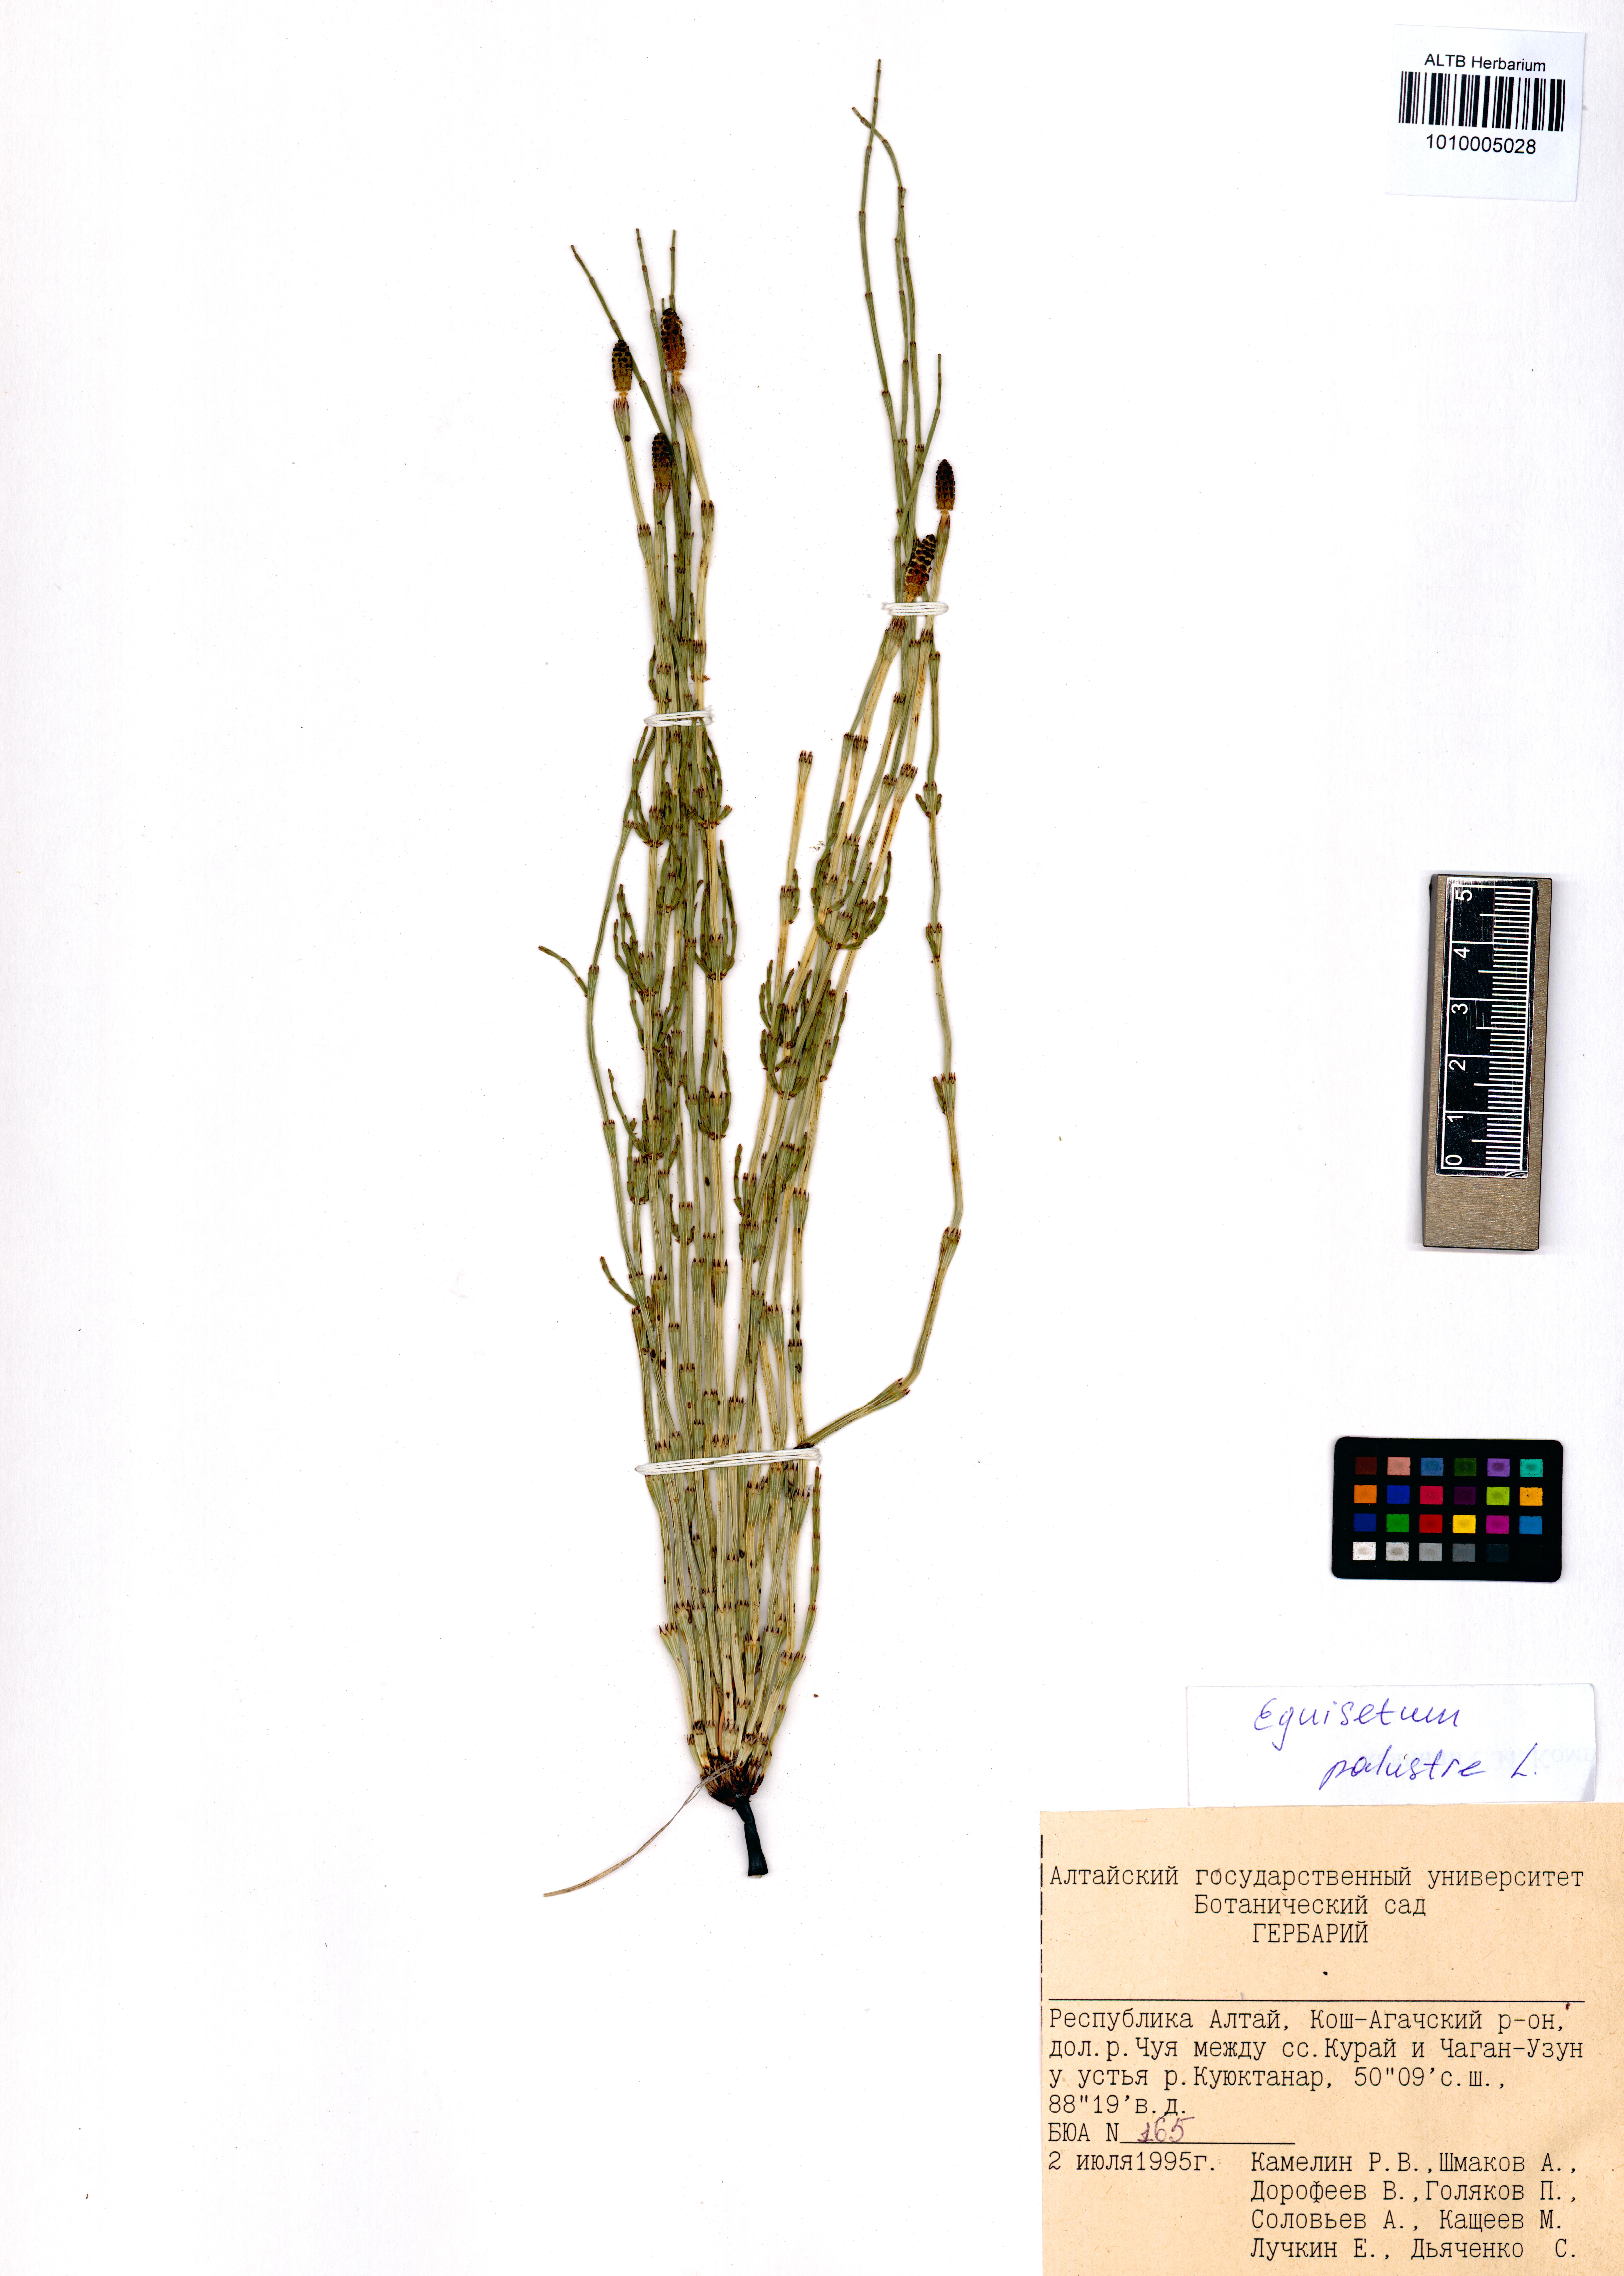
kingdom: Plantae
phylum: Tracheophyta
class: Polypodiopsida
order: Equisetales
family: Equisetaceae
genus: Equisetum
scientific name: Equisetum palustre
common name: Marsh horsetail
